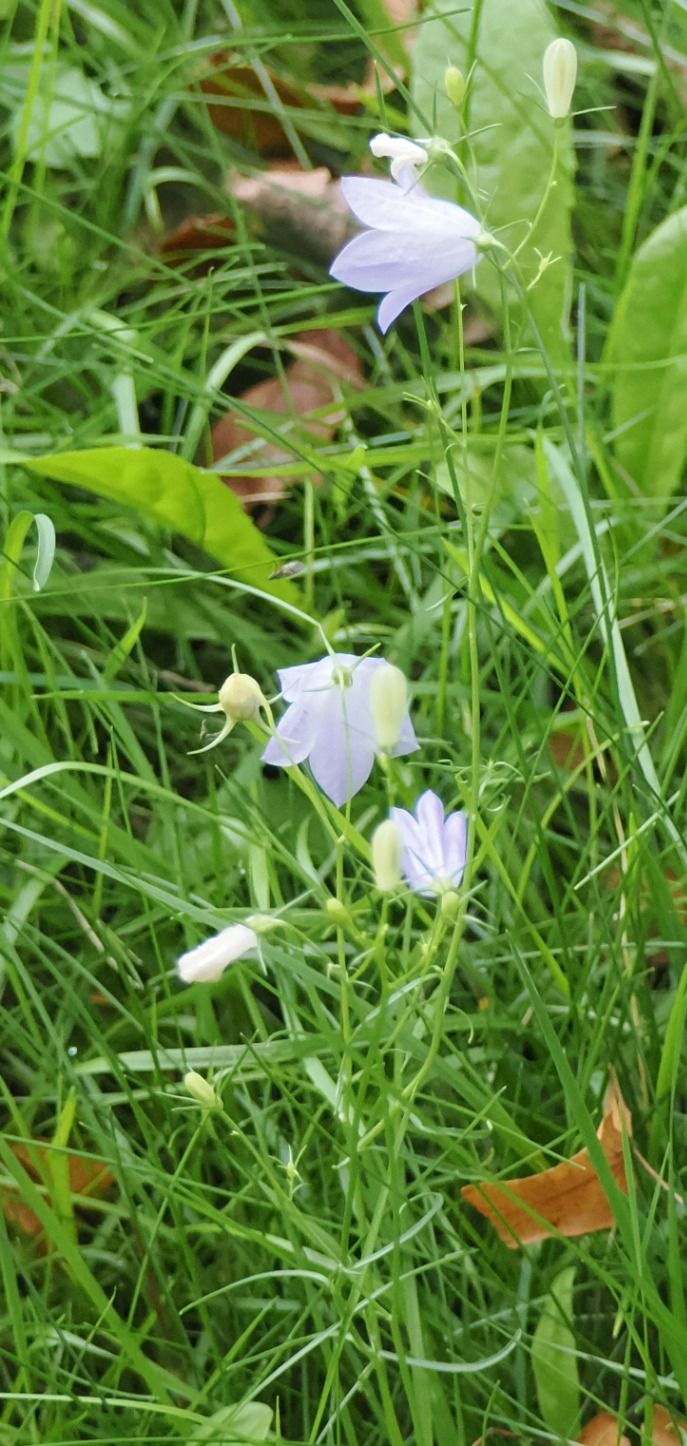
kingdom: Plantae
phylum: Tracheophyta
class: Magnoliopsida
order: Asterales
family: Campanulaceae
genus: Campanula
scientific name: Campanula rotundifolia
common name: Liden klokke
